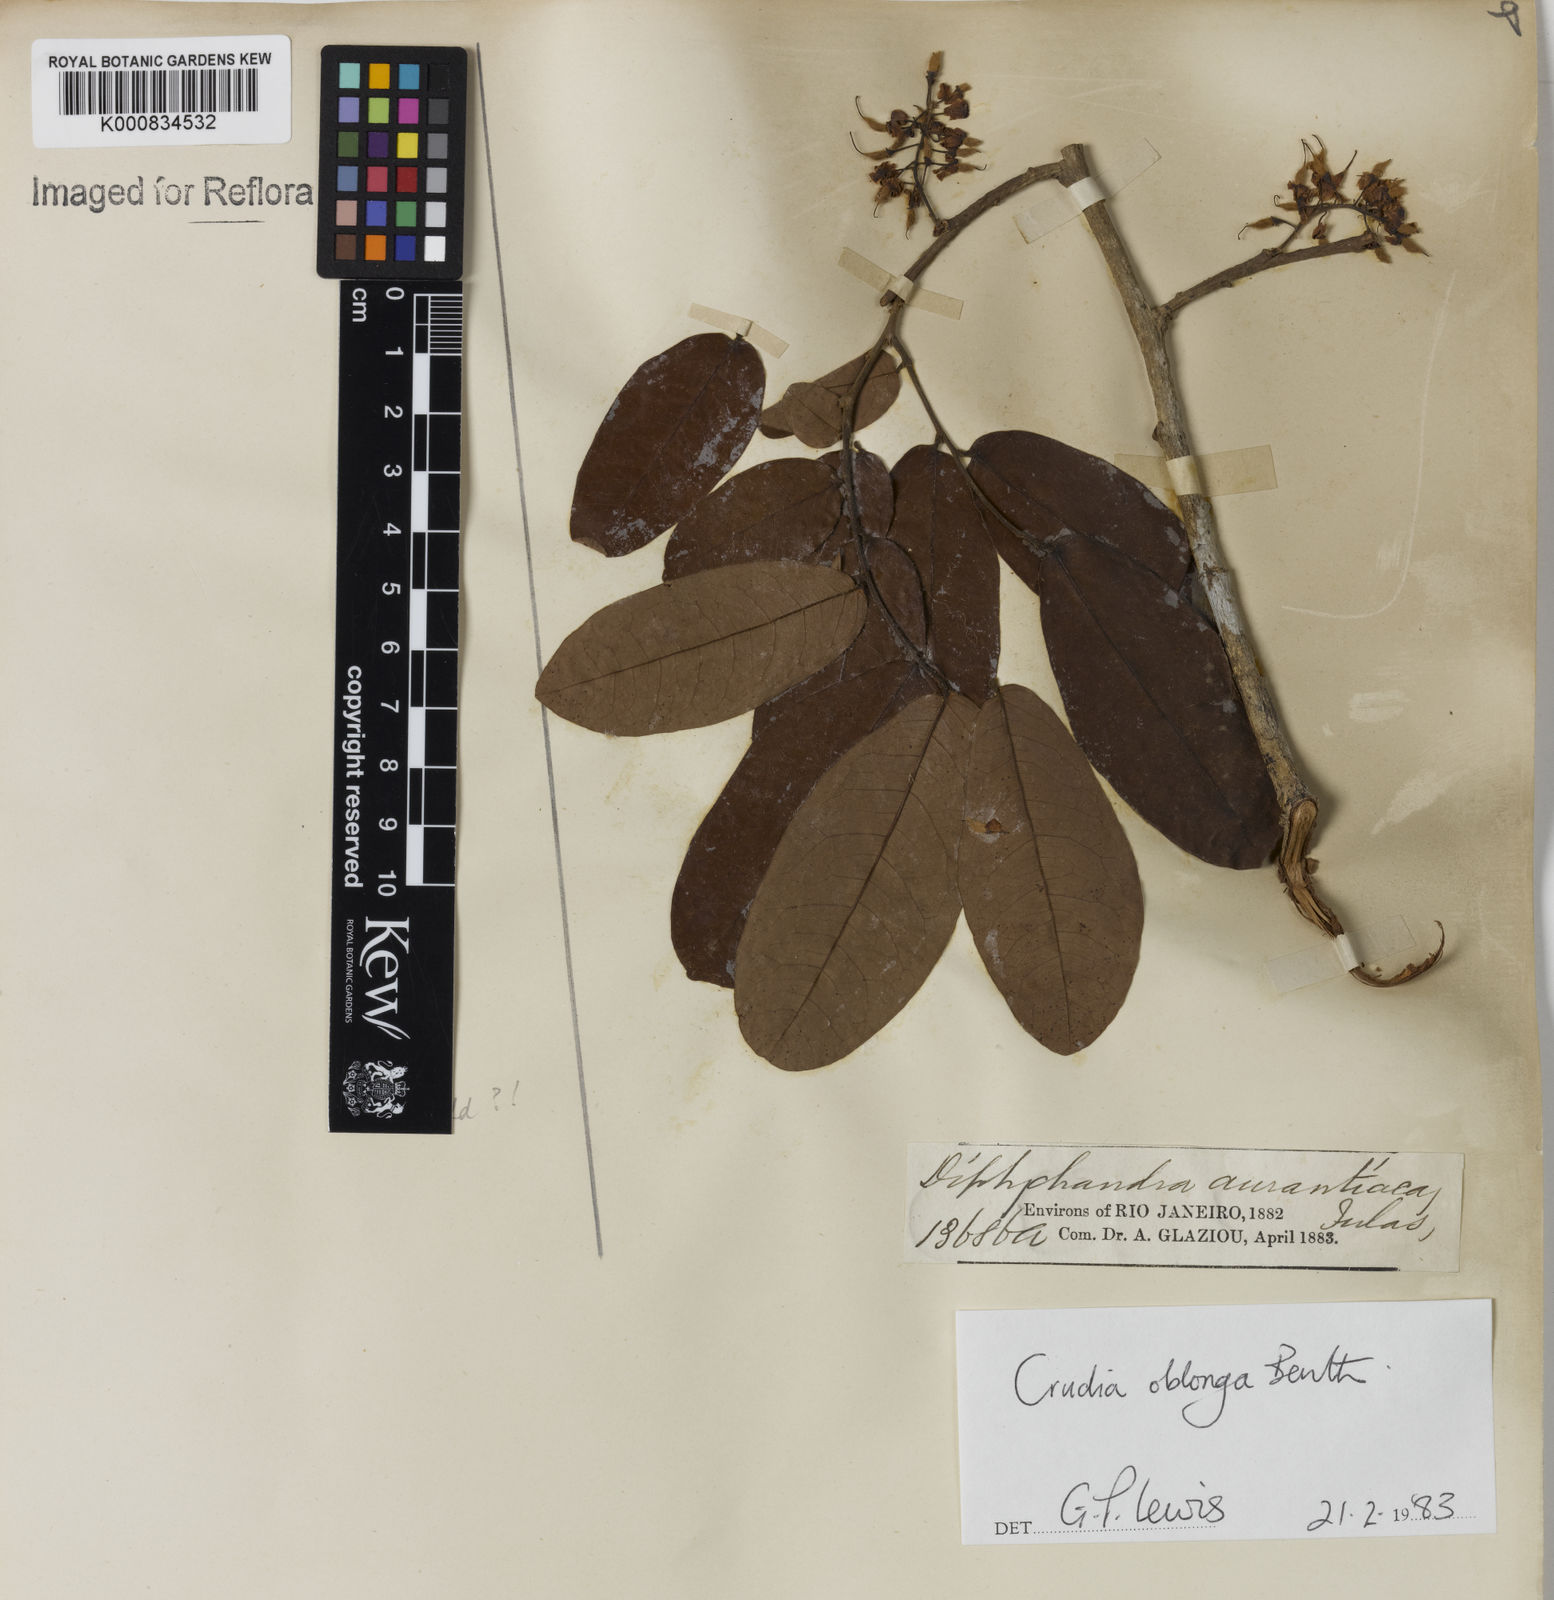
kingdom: Plantae
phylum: Tracheophyta
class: Magnoliopsida
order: Fabales
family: Fabaceae
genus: Crudia
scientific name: Crudia glaberrima
